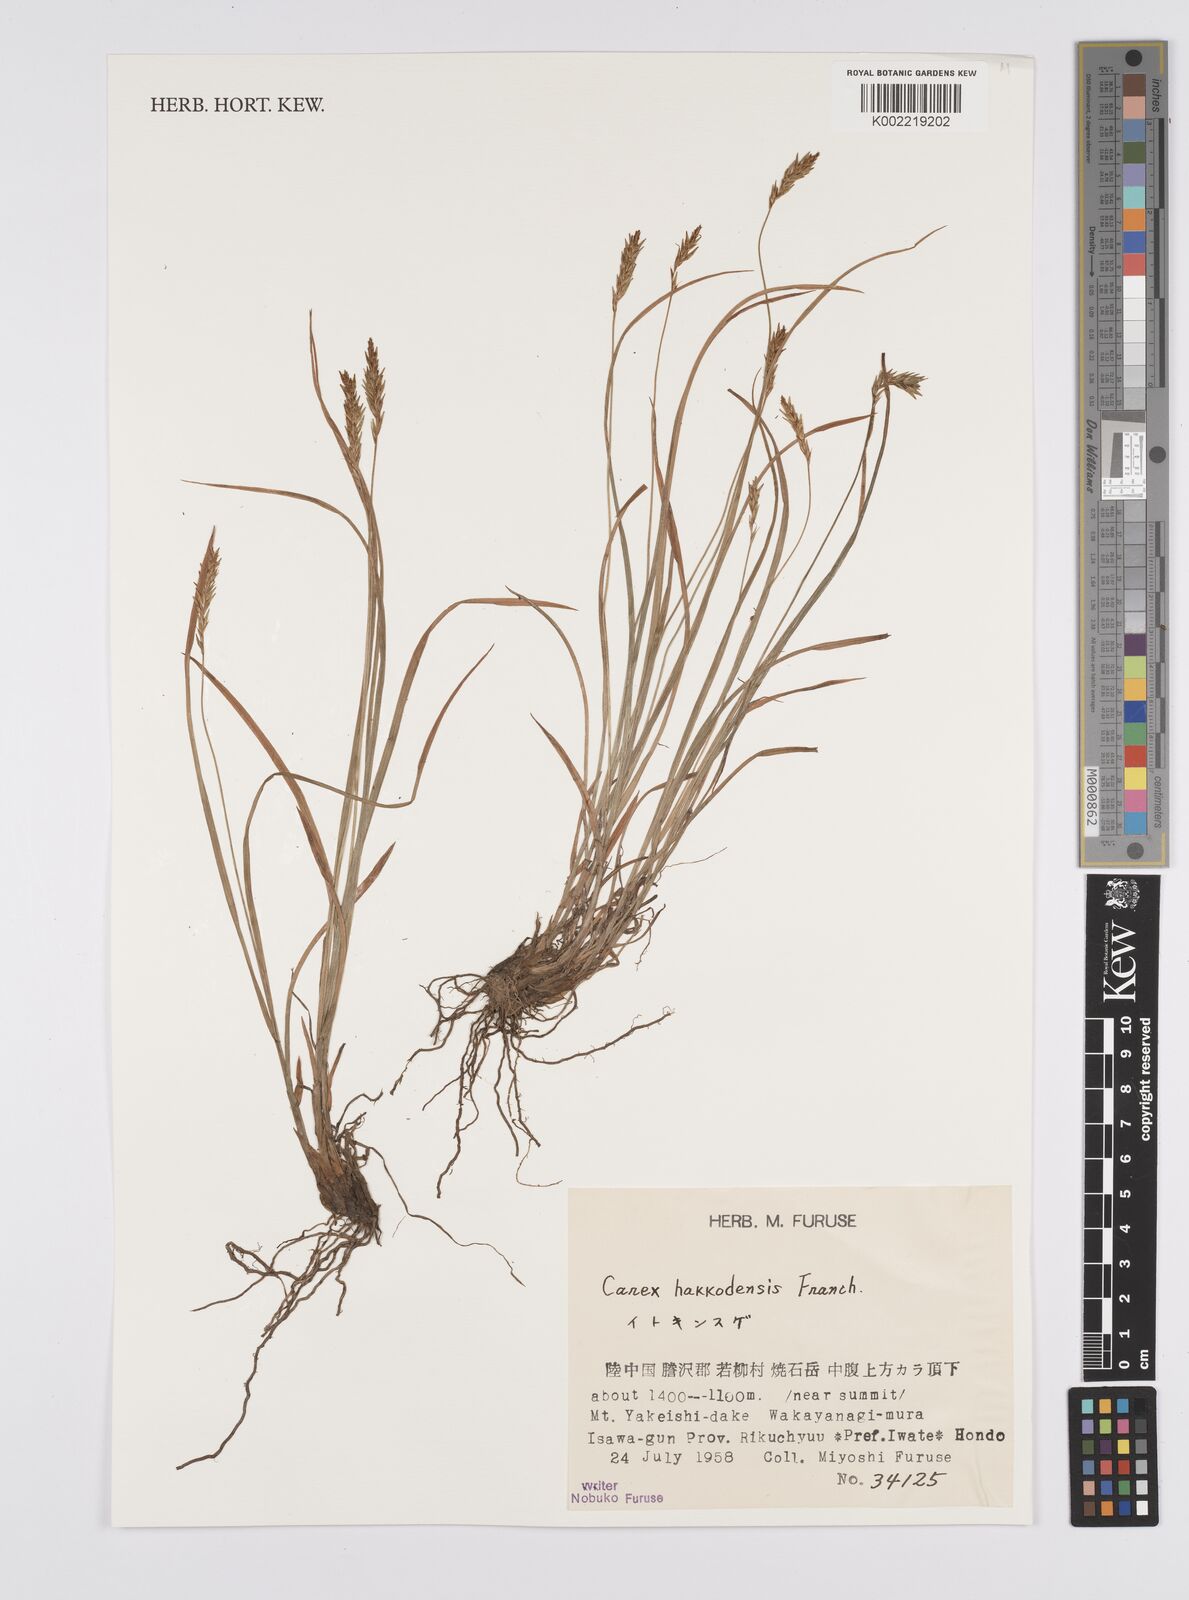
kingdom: Plantae
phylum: Tracheophyta
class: Liliopsida
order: Poales
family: Cyperaceae
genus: Carex
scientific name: Carex hakkodensis
